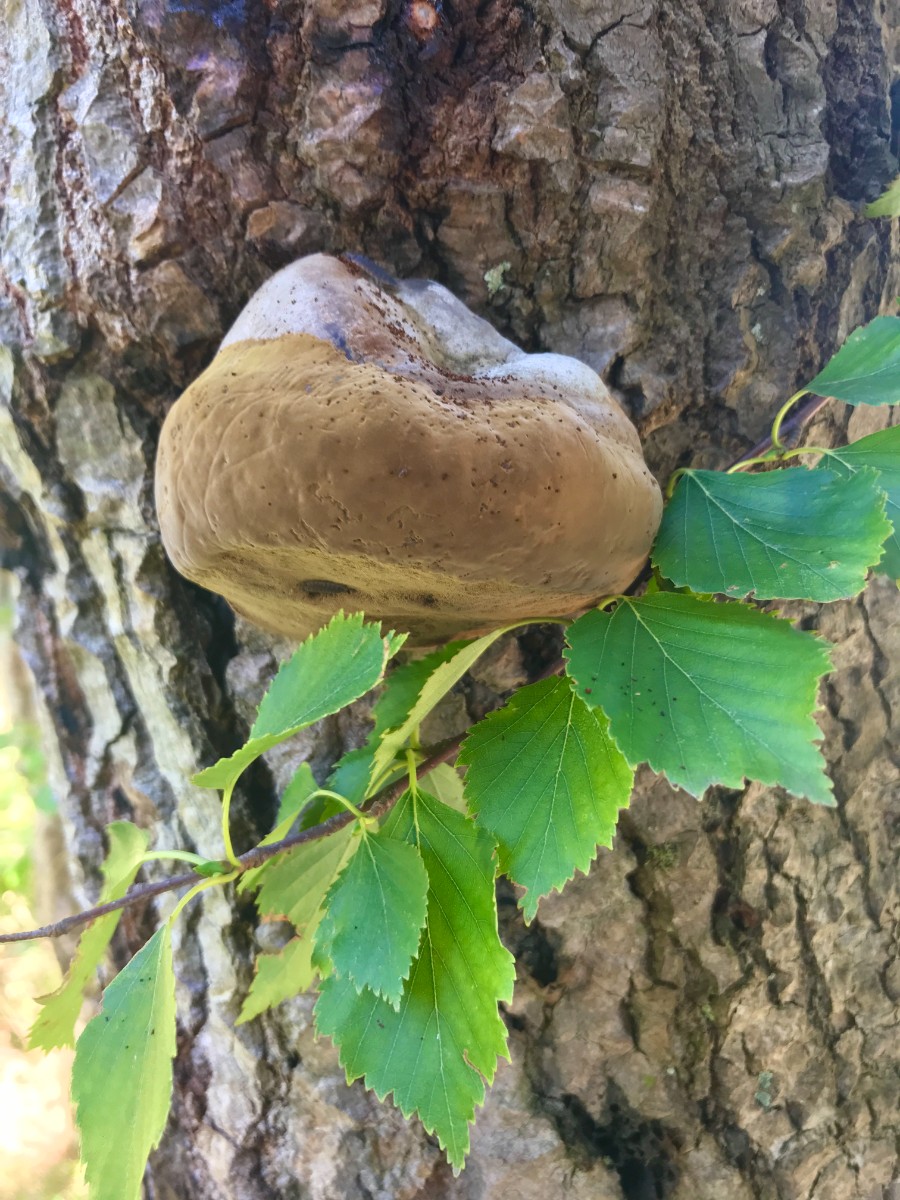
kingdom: Fungi
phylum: Basidiomycota
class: Agaricomycetes
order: Hymenochaetales
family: Hymenochaetaceae
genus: Phellinus
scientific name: Phellinus populicola
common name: poppel-ildporesvamp
